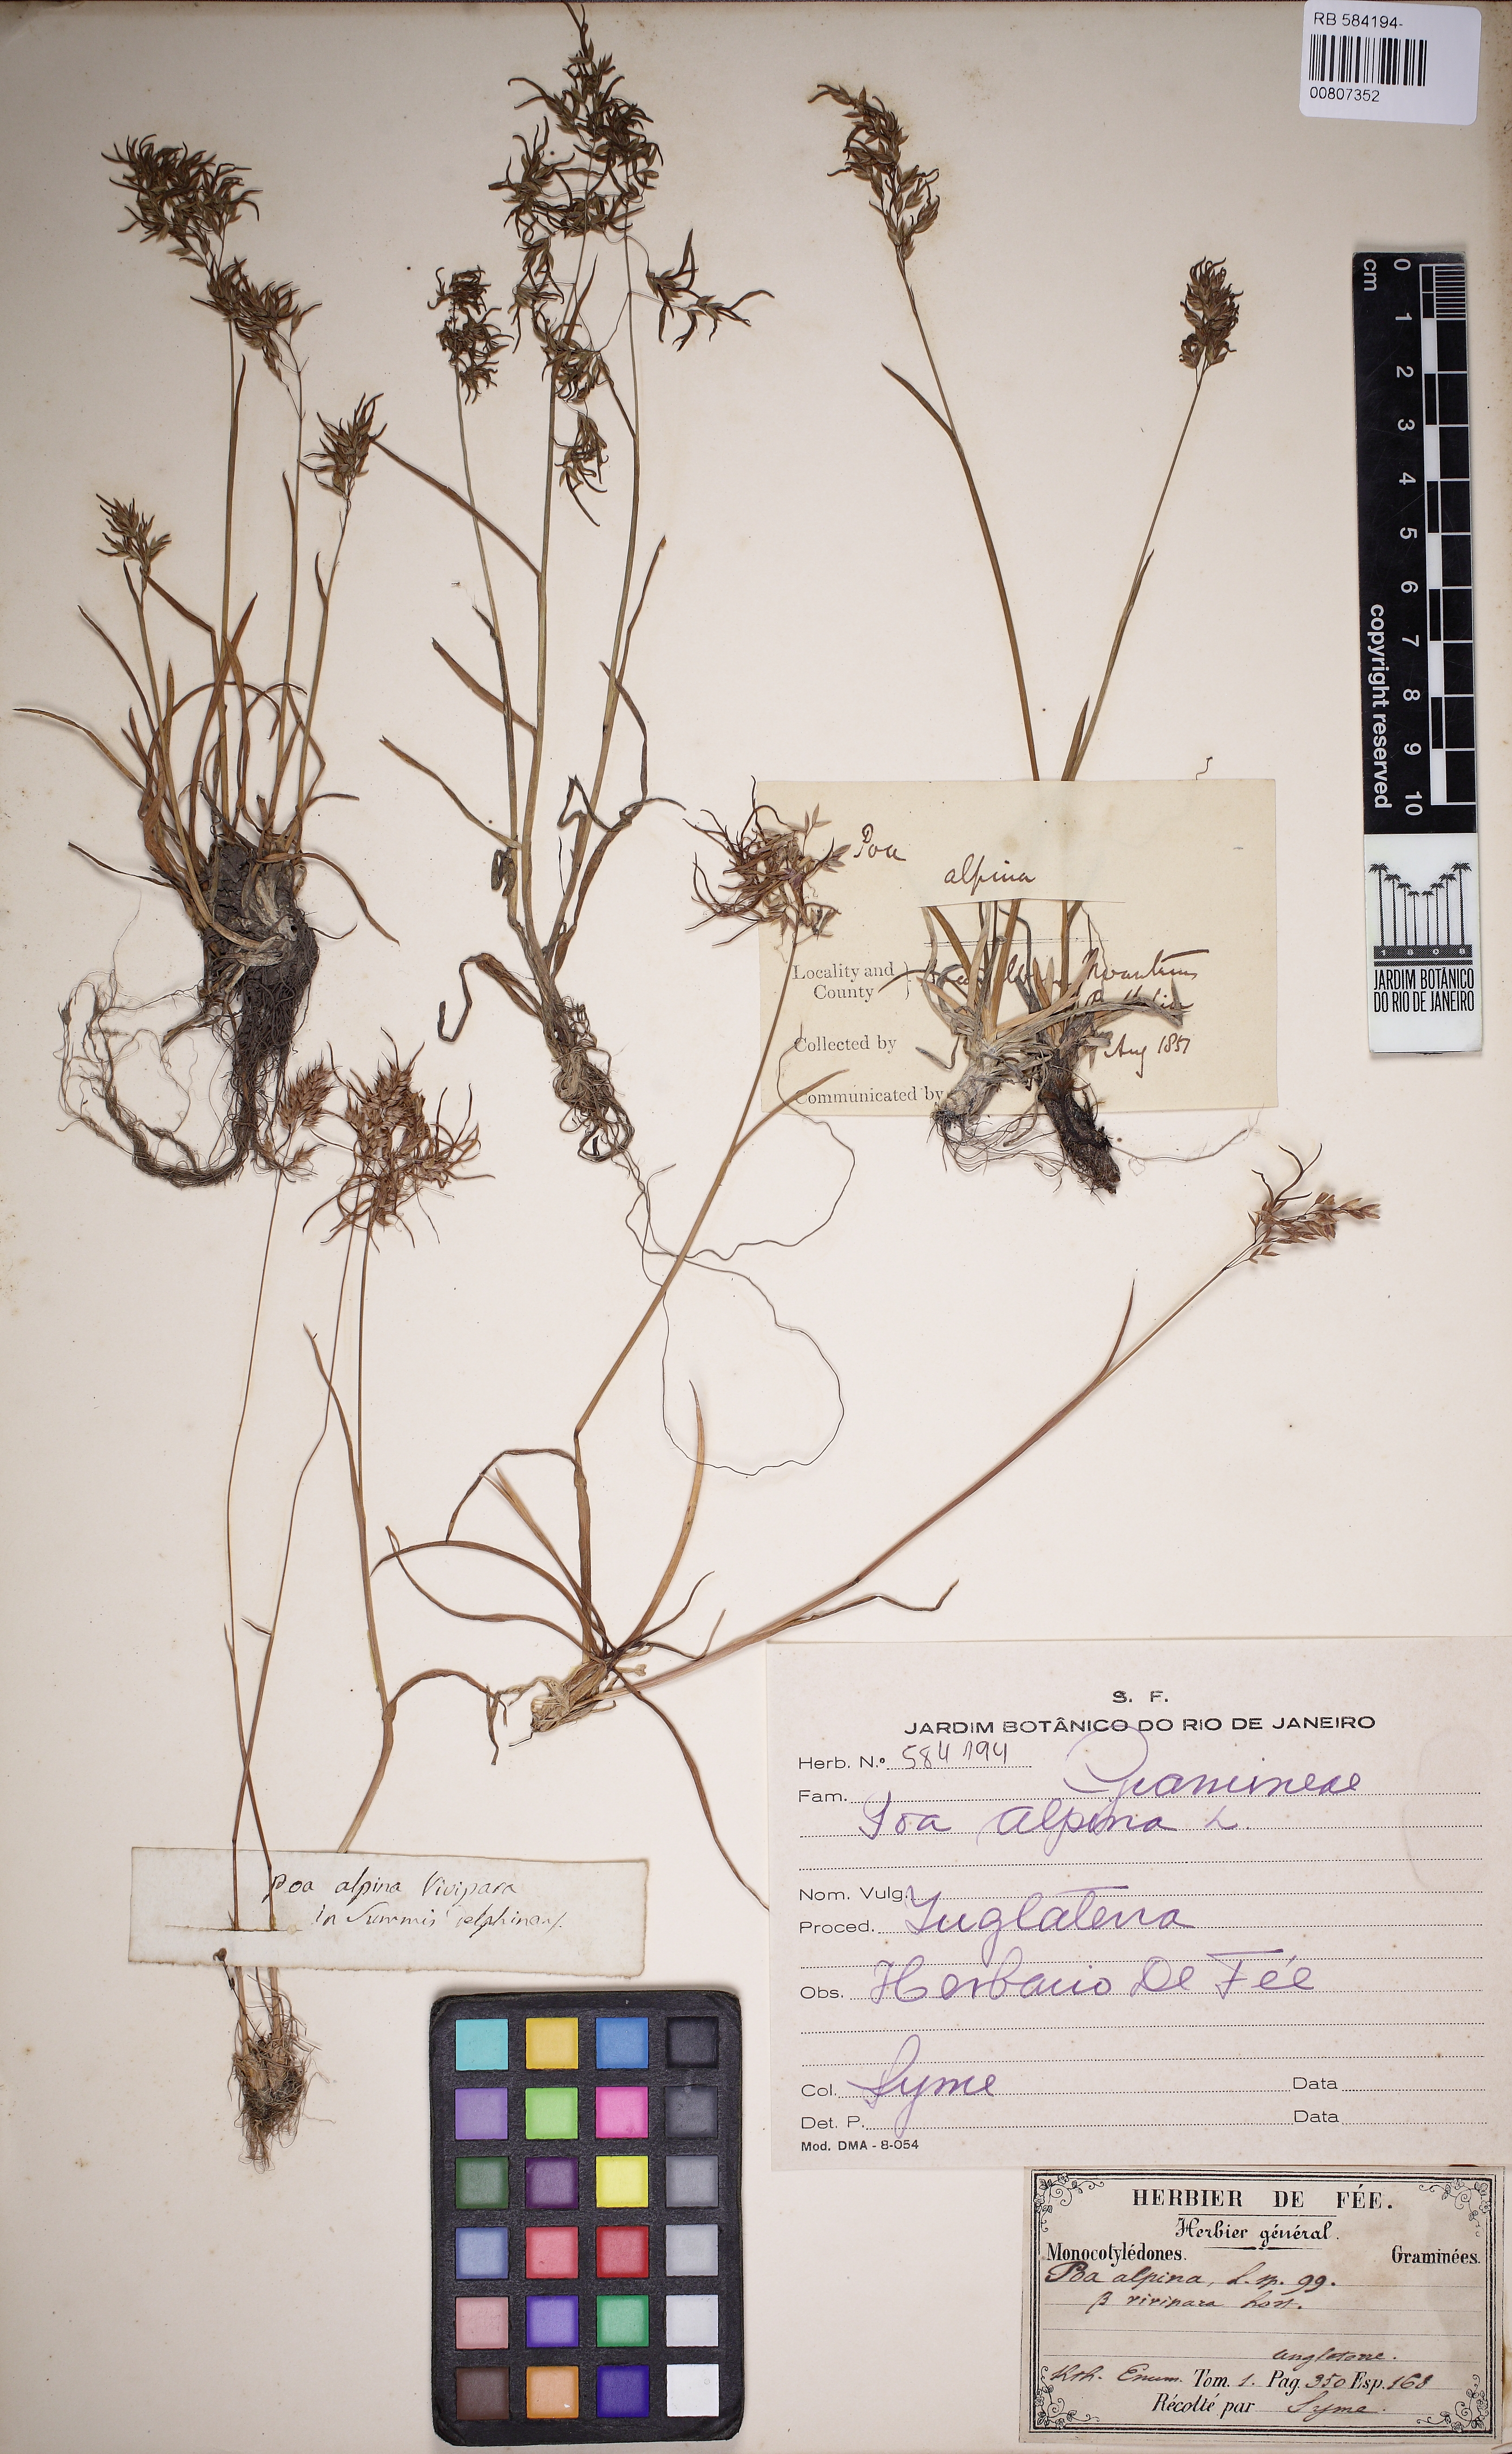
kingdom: Plantae
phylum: Tracheophyta
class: Liliopsida
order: Poales
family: Poaceae
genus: Poa
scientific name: Poa alpina
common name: Alpine bluegrass
